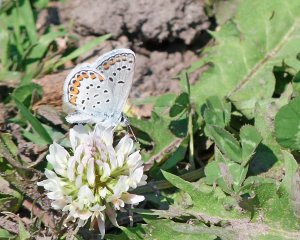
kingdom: Animalia
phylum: Arthropoda
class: Insecta
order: Lepidoptera
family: Lycaenidae
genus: Lycaeides
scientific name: Lycaeides melissa
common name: Melissa Blue
